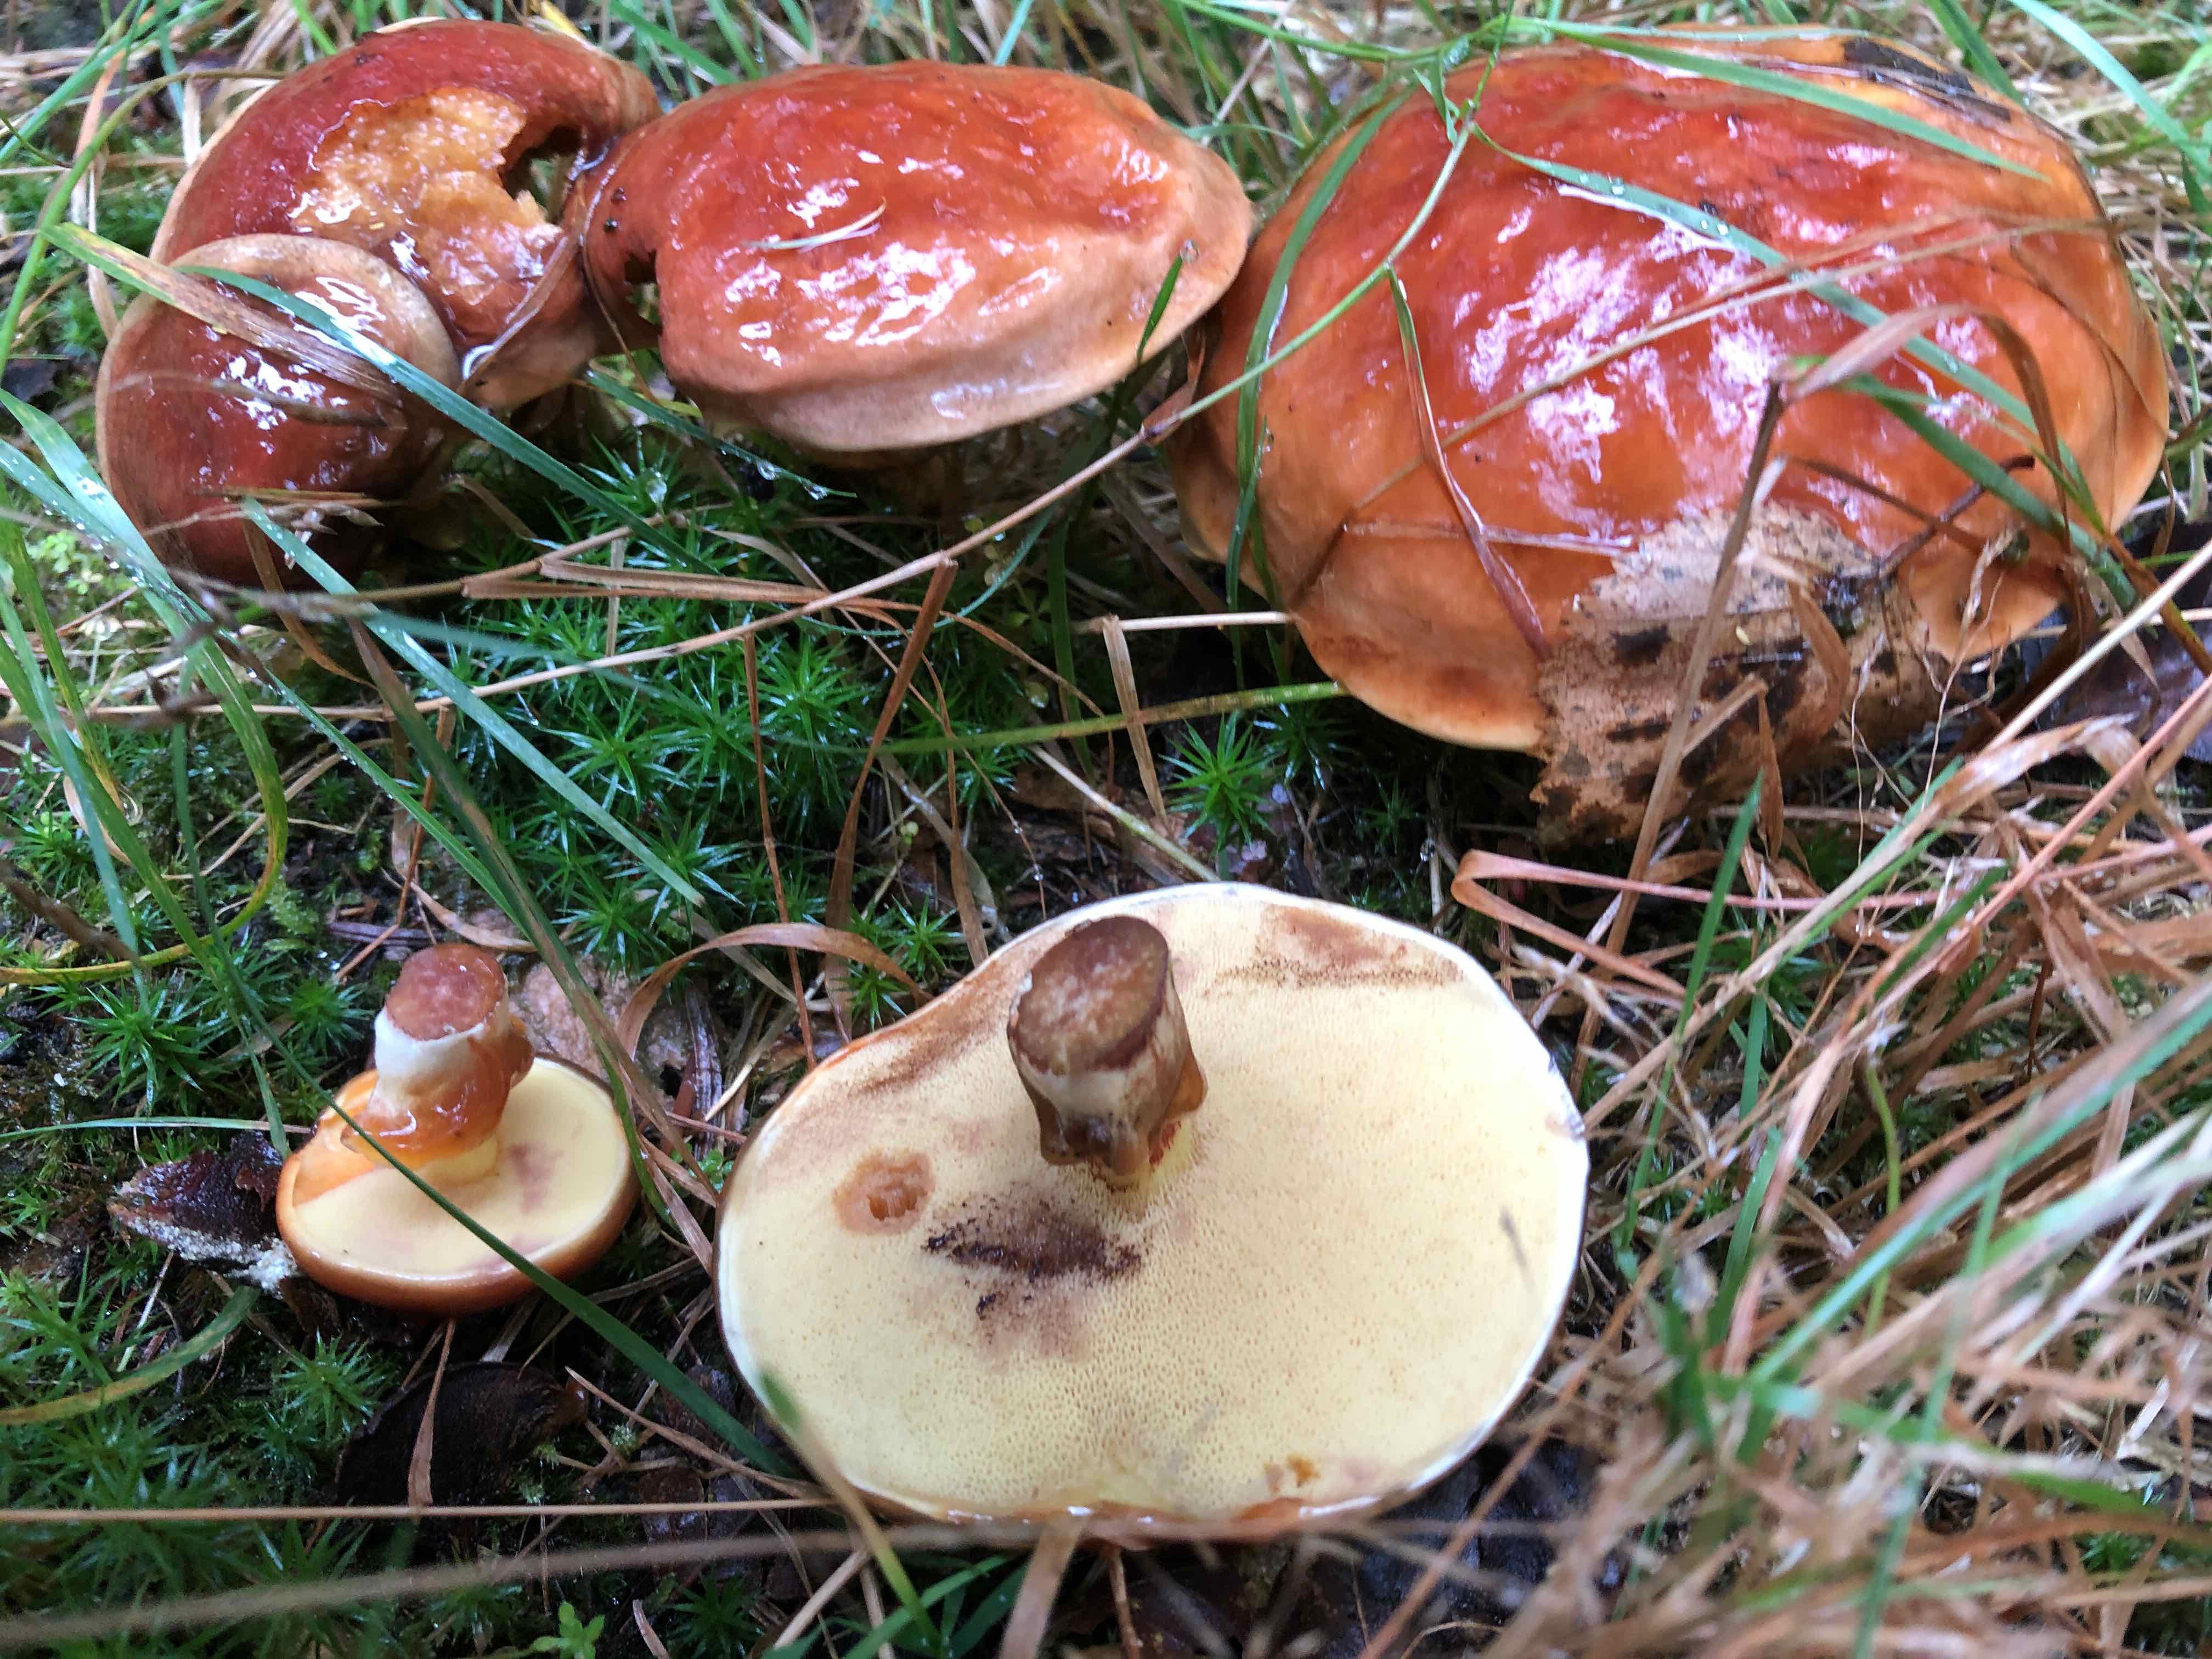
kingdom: Fungi
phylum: Basidiomycota
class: Agaricomycetes
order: Boletales
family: Suillaceae
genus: Suillus
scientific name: Suillus grevillei
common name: Larch bolete
